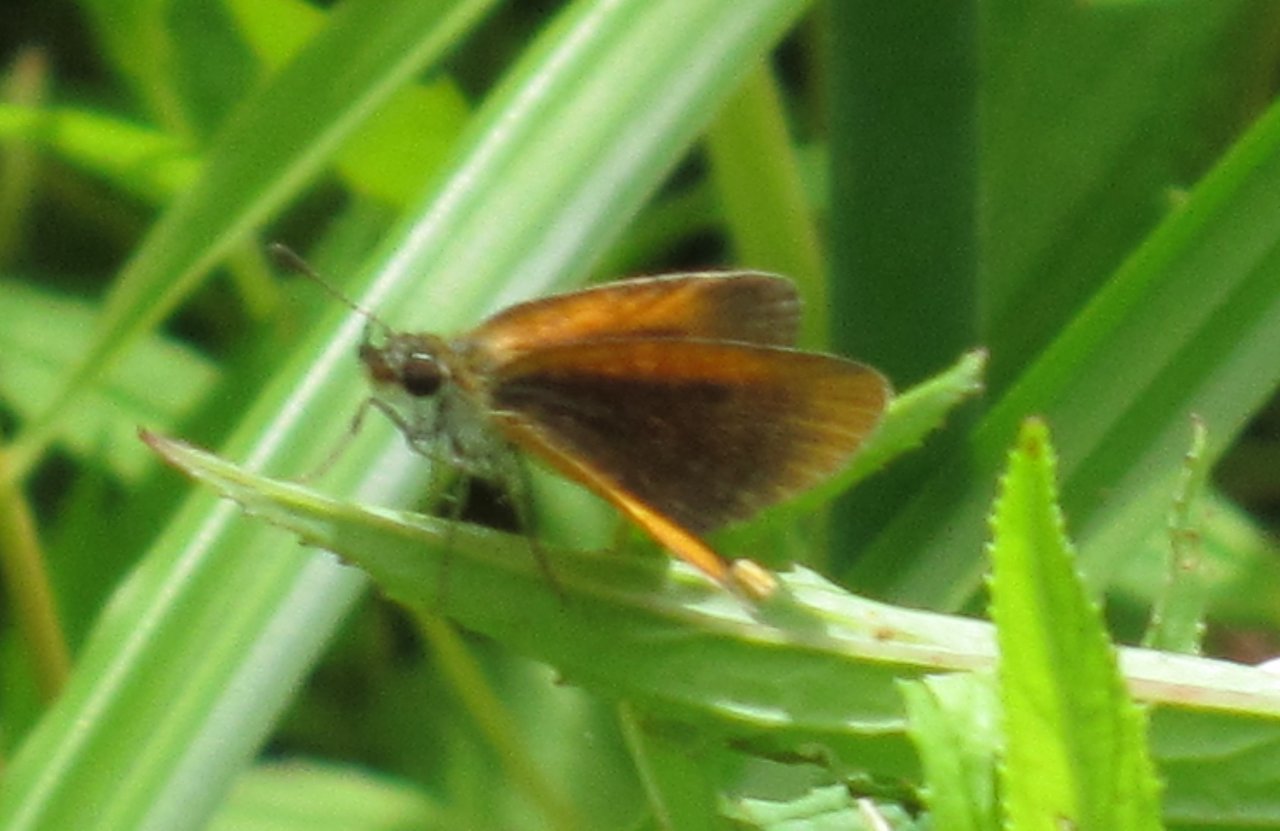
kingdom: Animalia
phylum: Arthropoda
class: Insecta
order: Lepidoptera
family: Hesperiidae
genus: Ancyloxypha
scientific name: Ancyloxypha numitor
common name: Least Skipper
